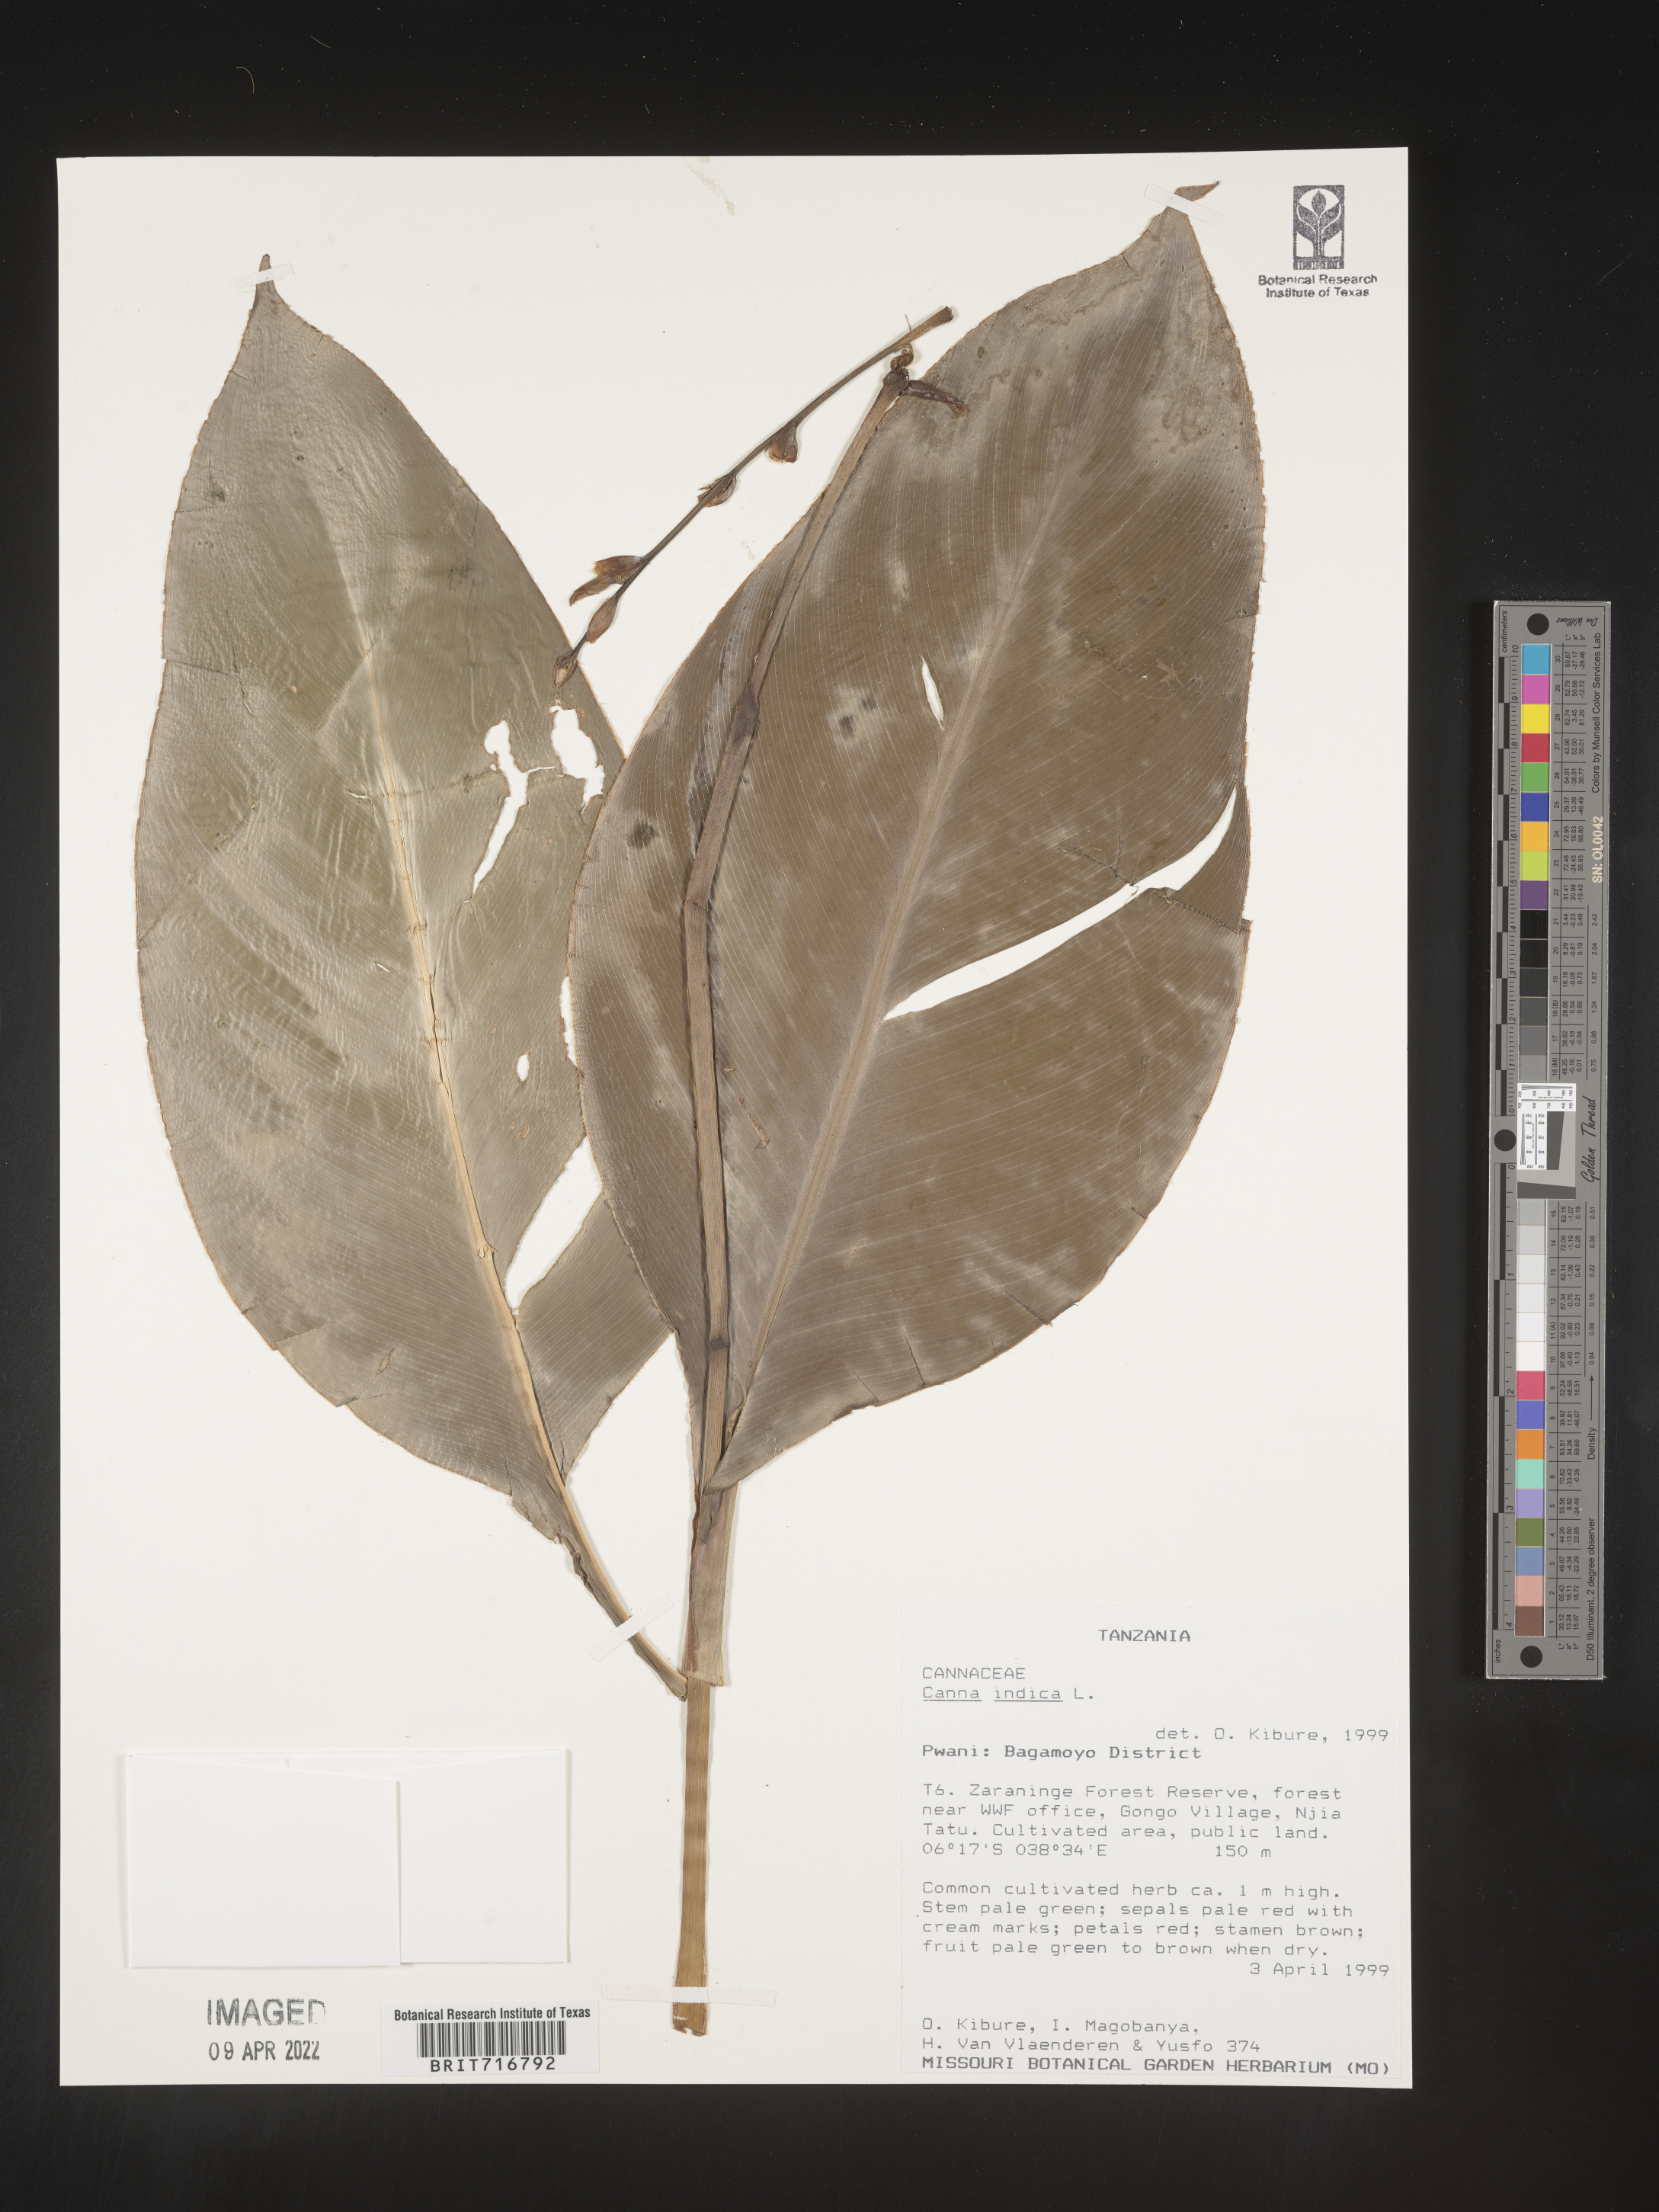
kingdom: Plantae
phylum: Tracheophyta
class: Liliopsida
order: Zingiberales
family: Cannaceae
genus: Canna
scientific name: Canna
